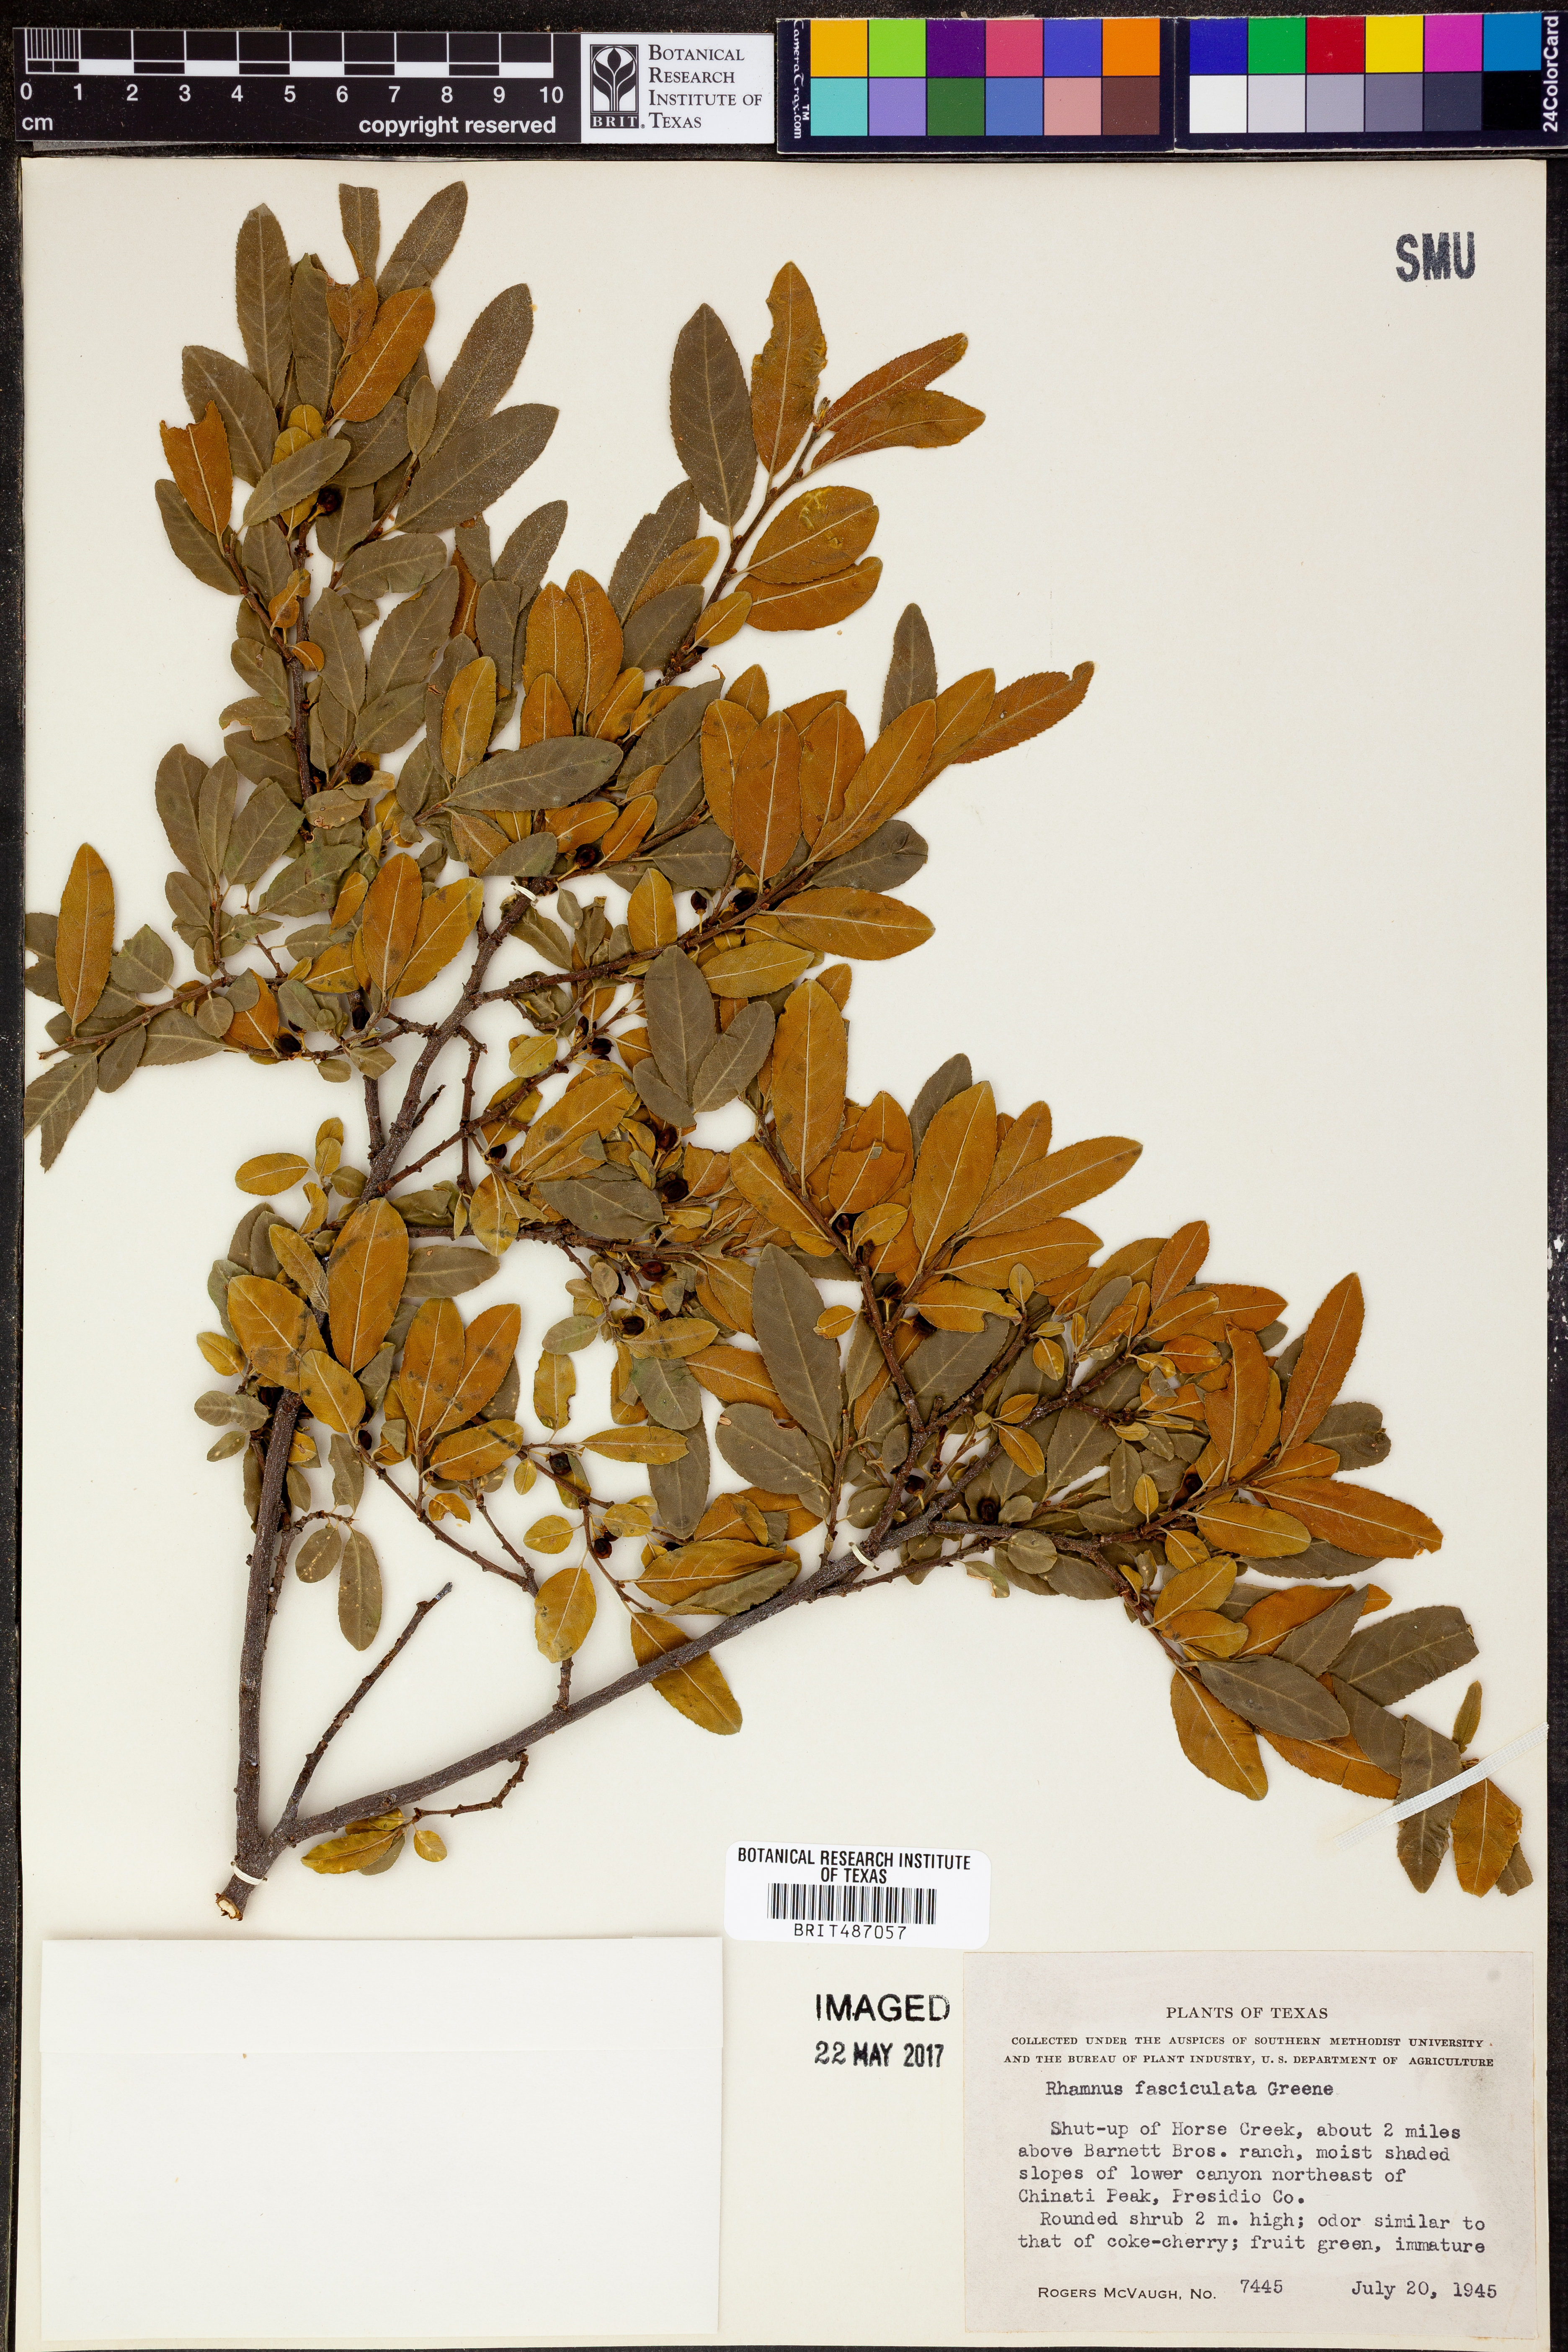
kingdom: Plantae
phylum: Tracheophyta
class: Magnoliopsida
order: Rosales
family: Rhamnaceae
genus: Endotropis
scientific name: Endotropis serrata
